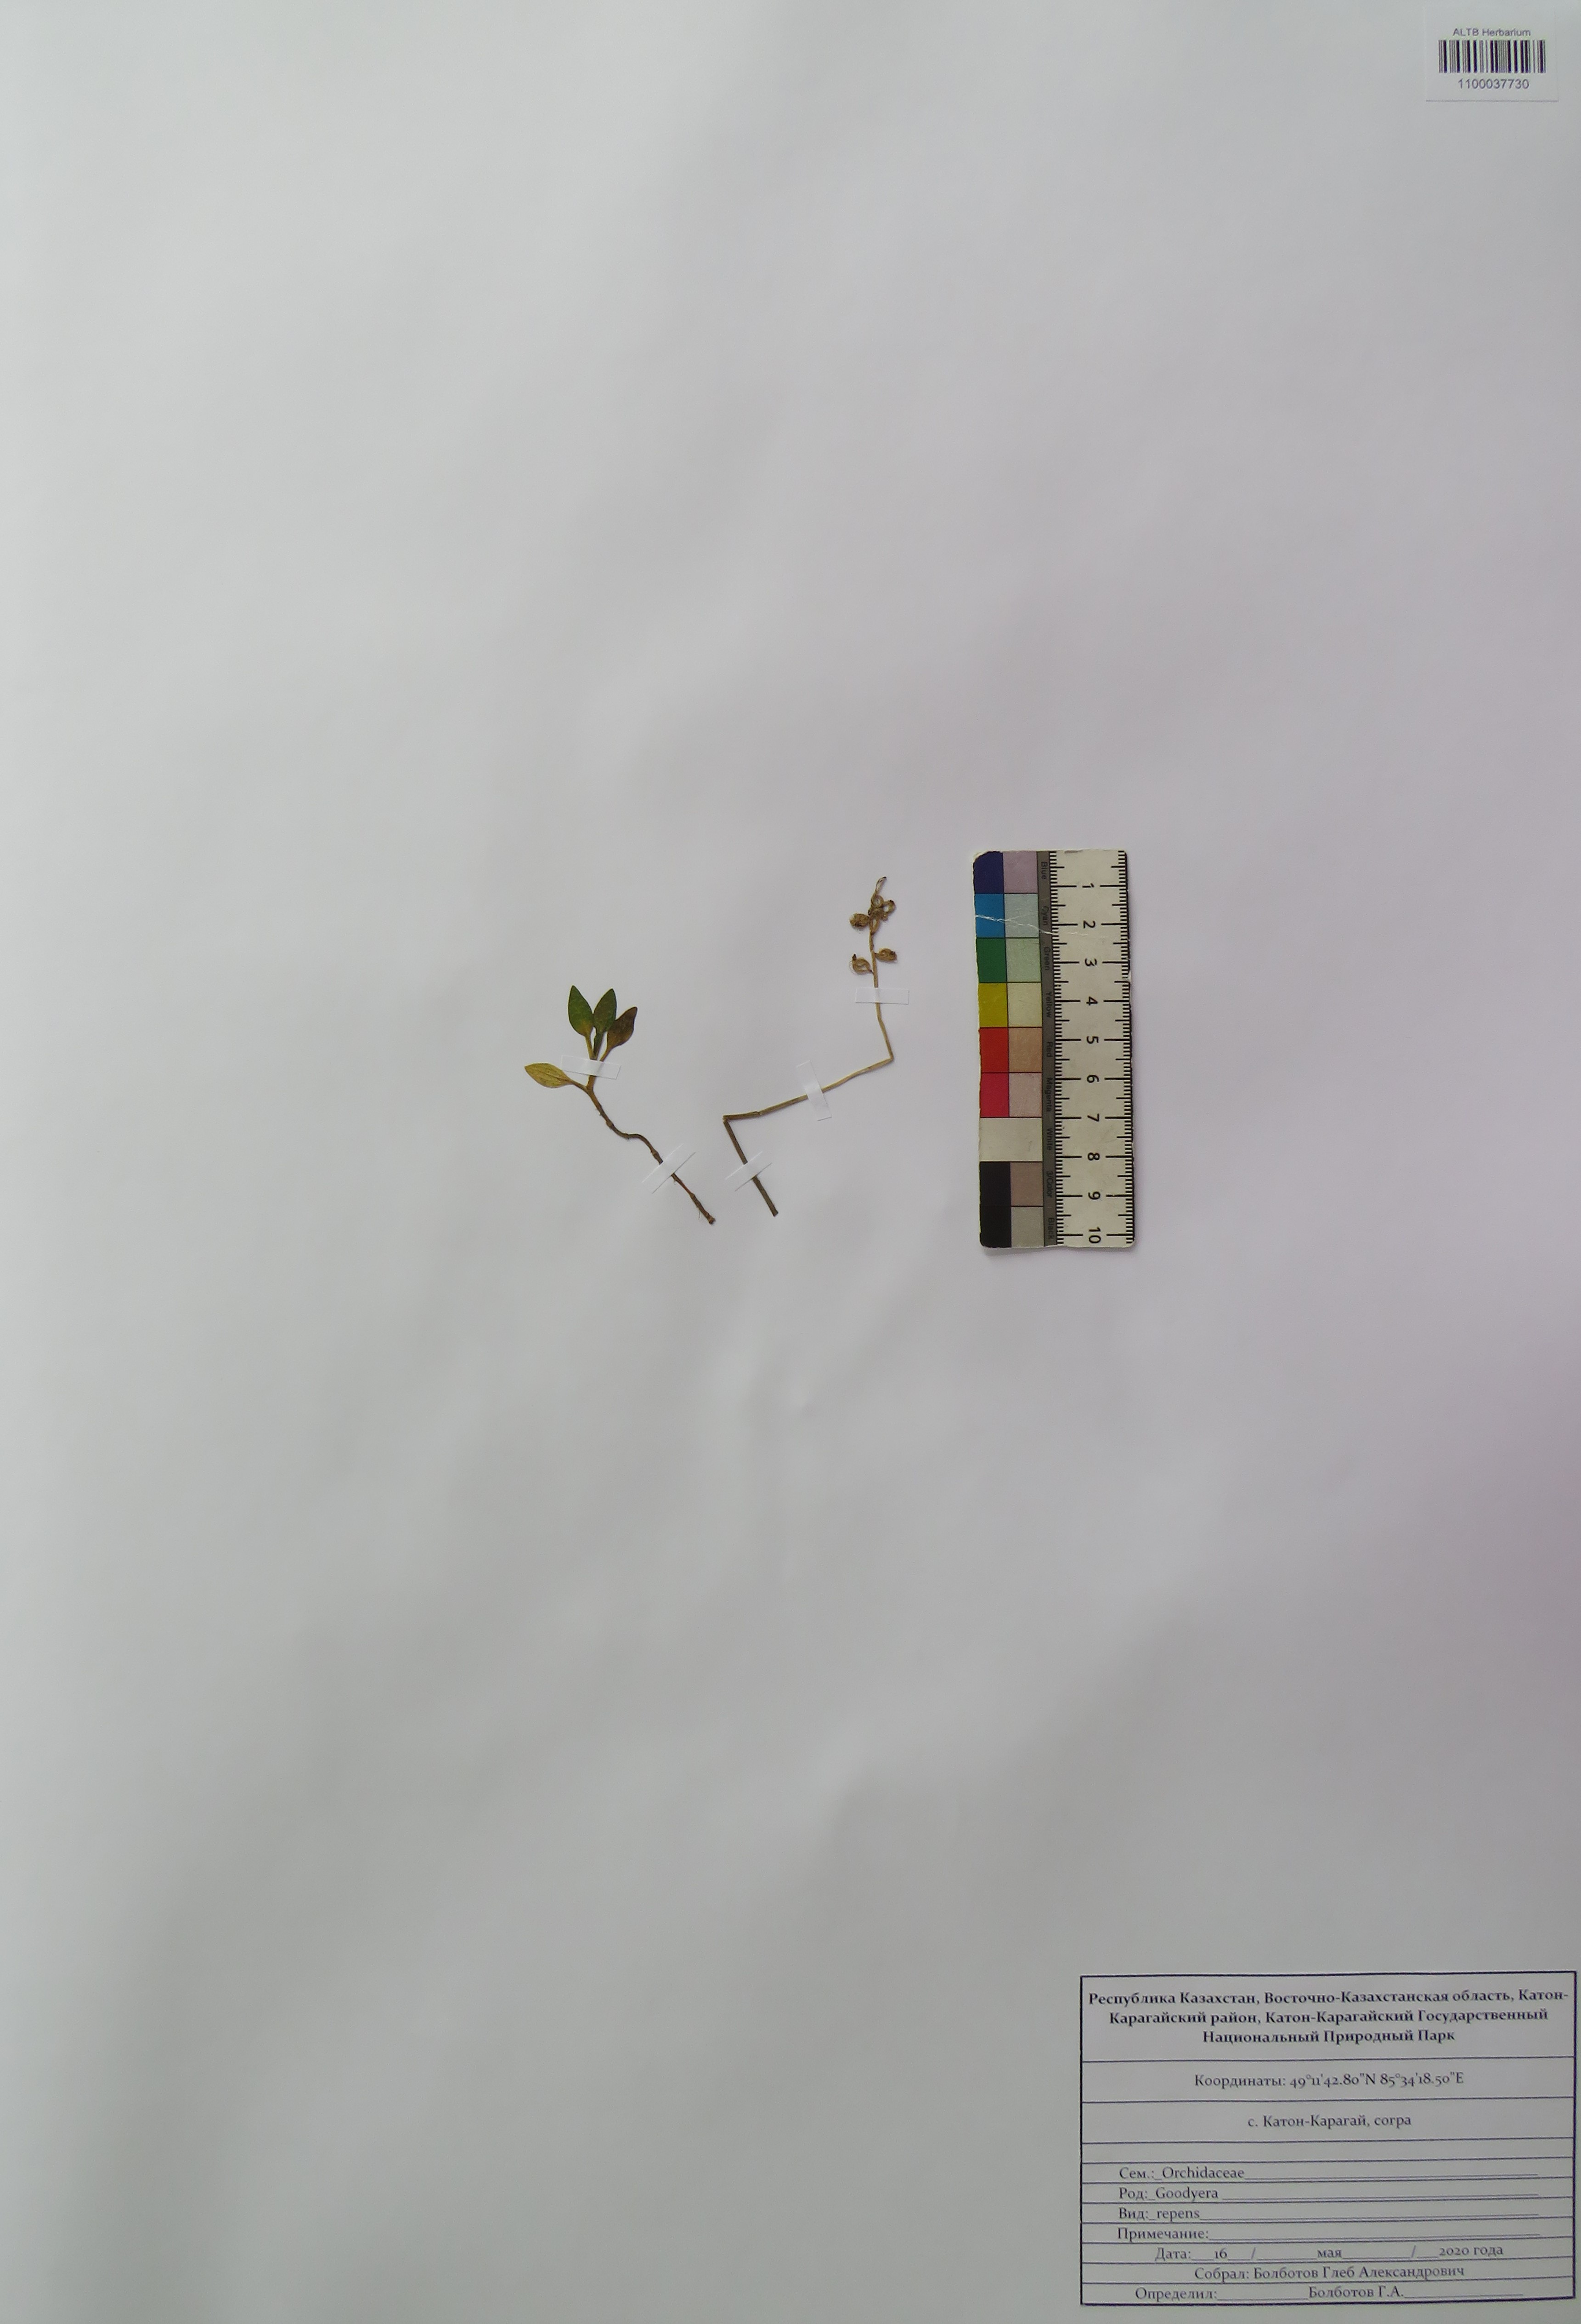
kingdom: Plantae
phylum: Tracheophyta
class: Liliopsida
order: Asparagales
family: Orchidaceae
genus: Goodyera
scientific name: Goodyera repens
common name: Creeping lady's-tresses
